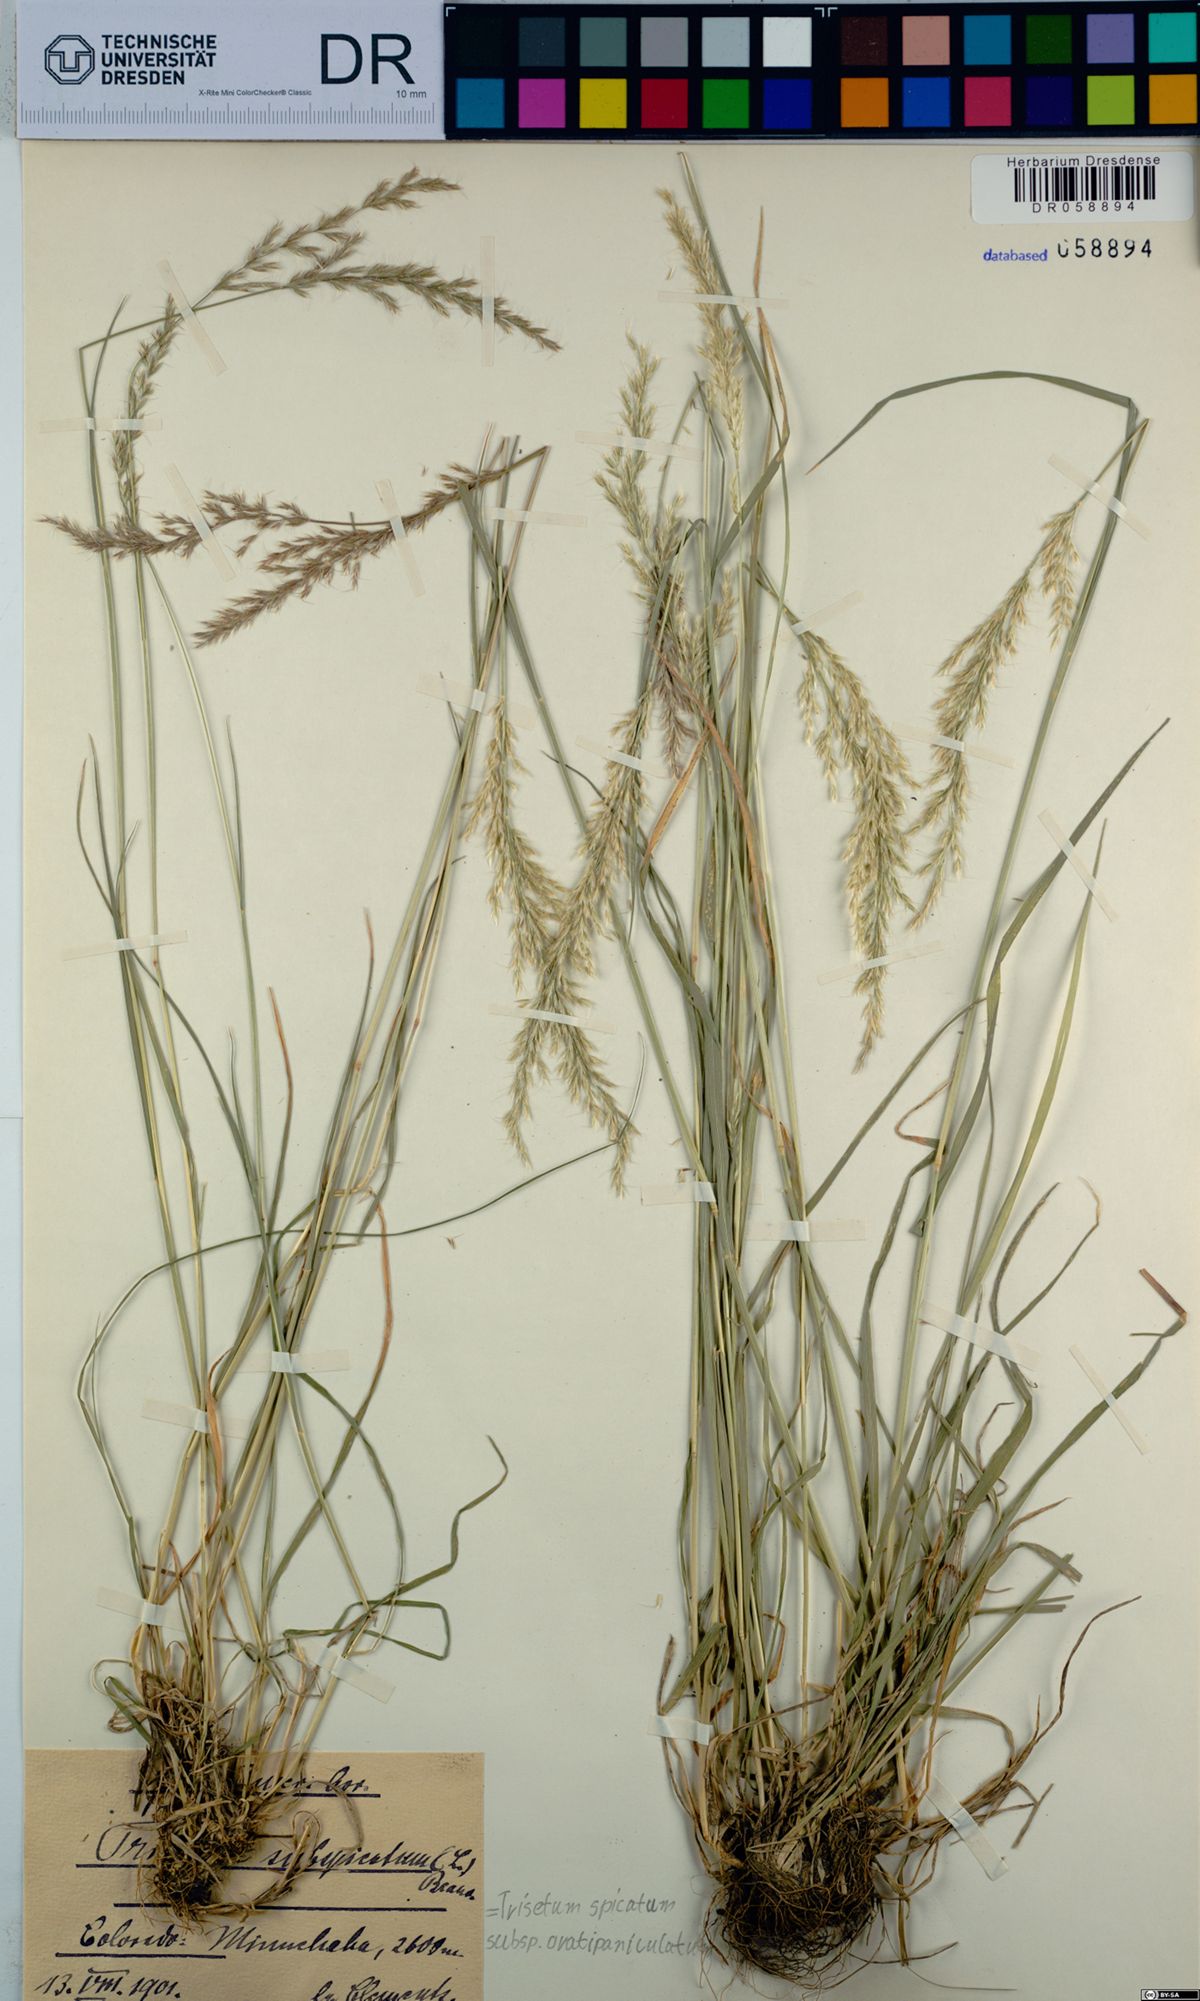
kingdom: Plantae
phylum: Tracheophyta
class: Liliopsida
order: Poales
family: Poaceae
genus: Koeleria
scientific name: Koeleria spicata
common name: Mountain trisetum
